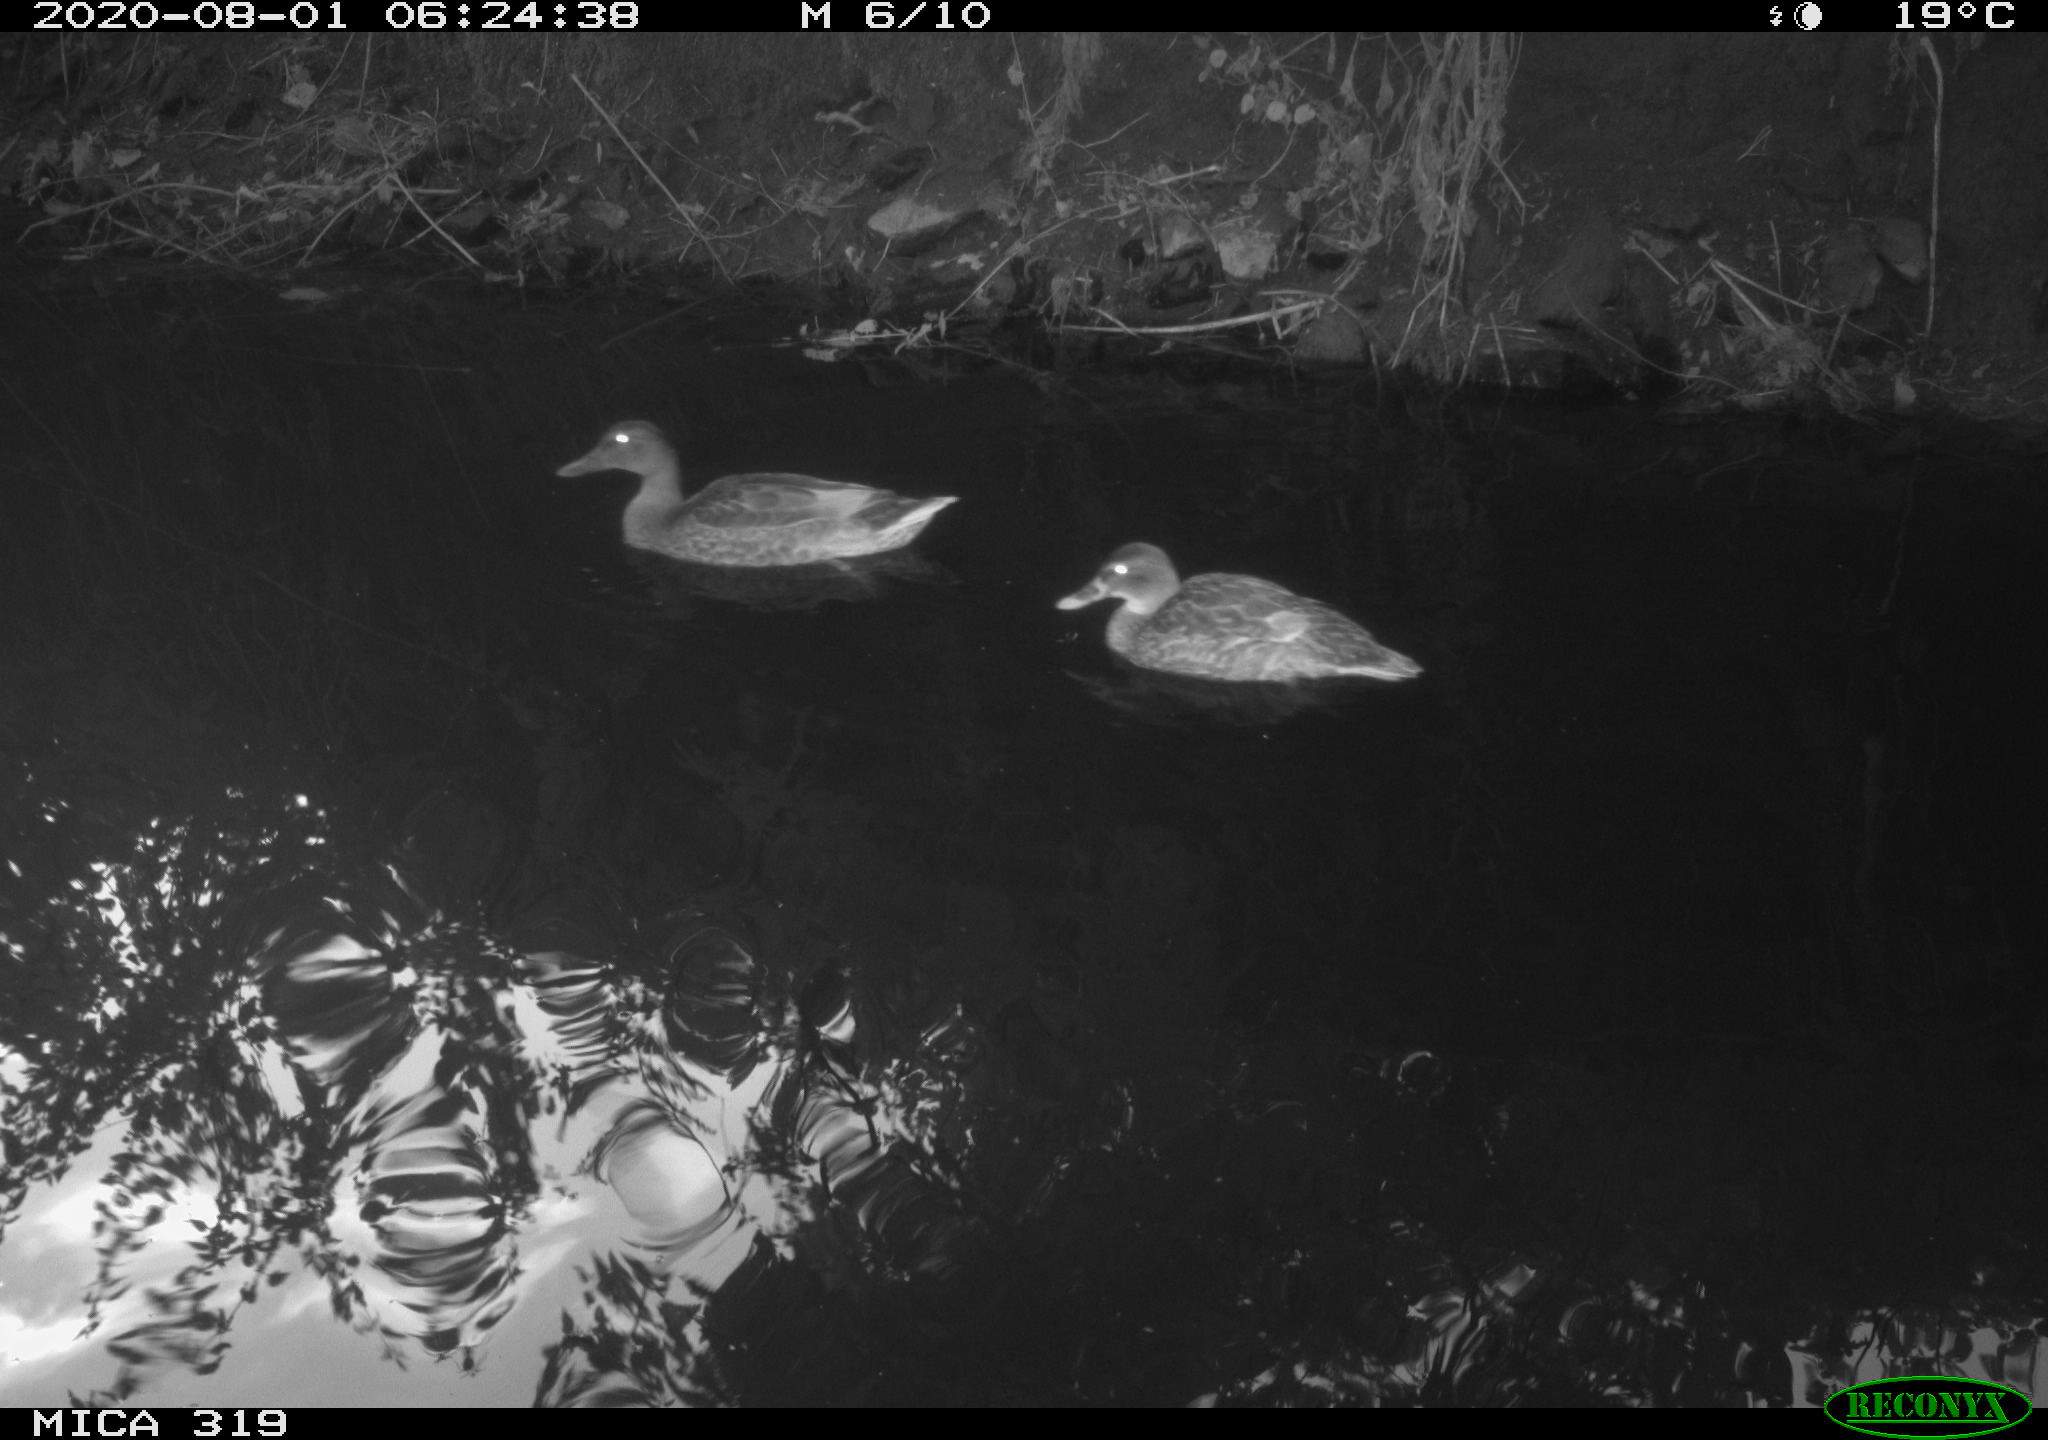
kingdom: Animalia
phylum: Chordata
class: Aves
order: Anseriformes
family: Anatidae
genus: Anas
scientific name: Anas platyrhynchos
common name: Mallard
